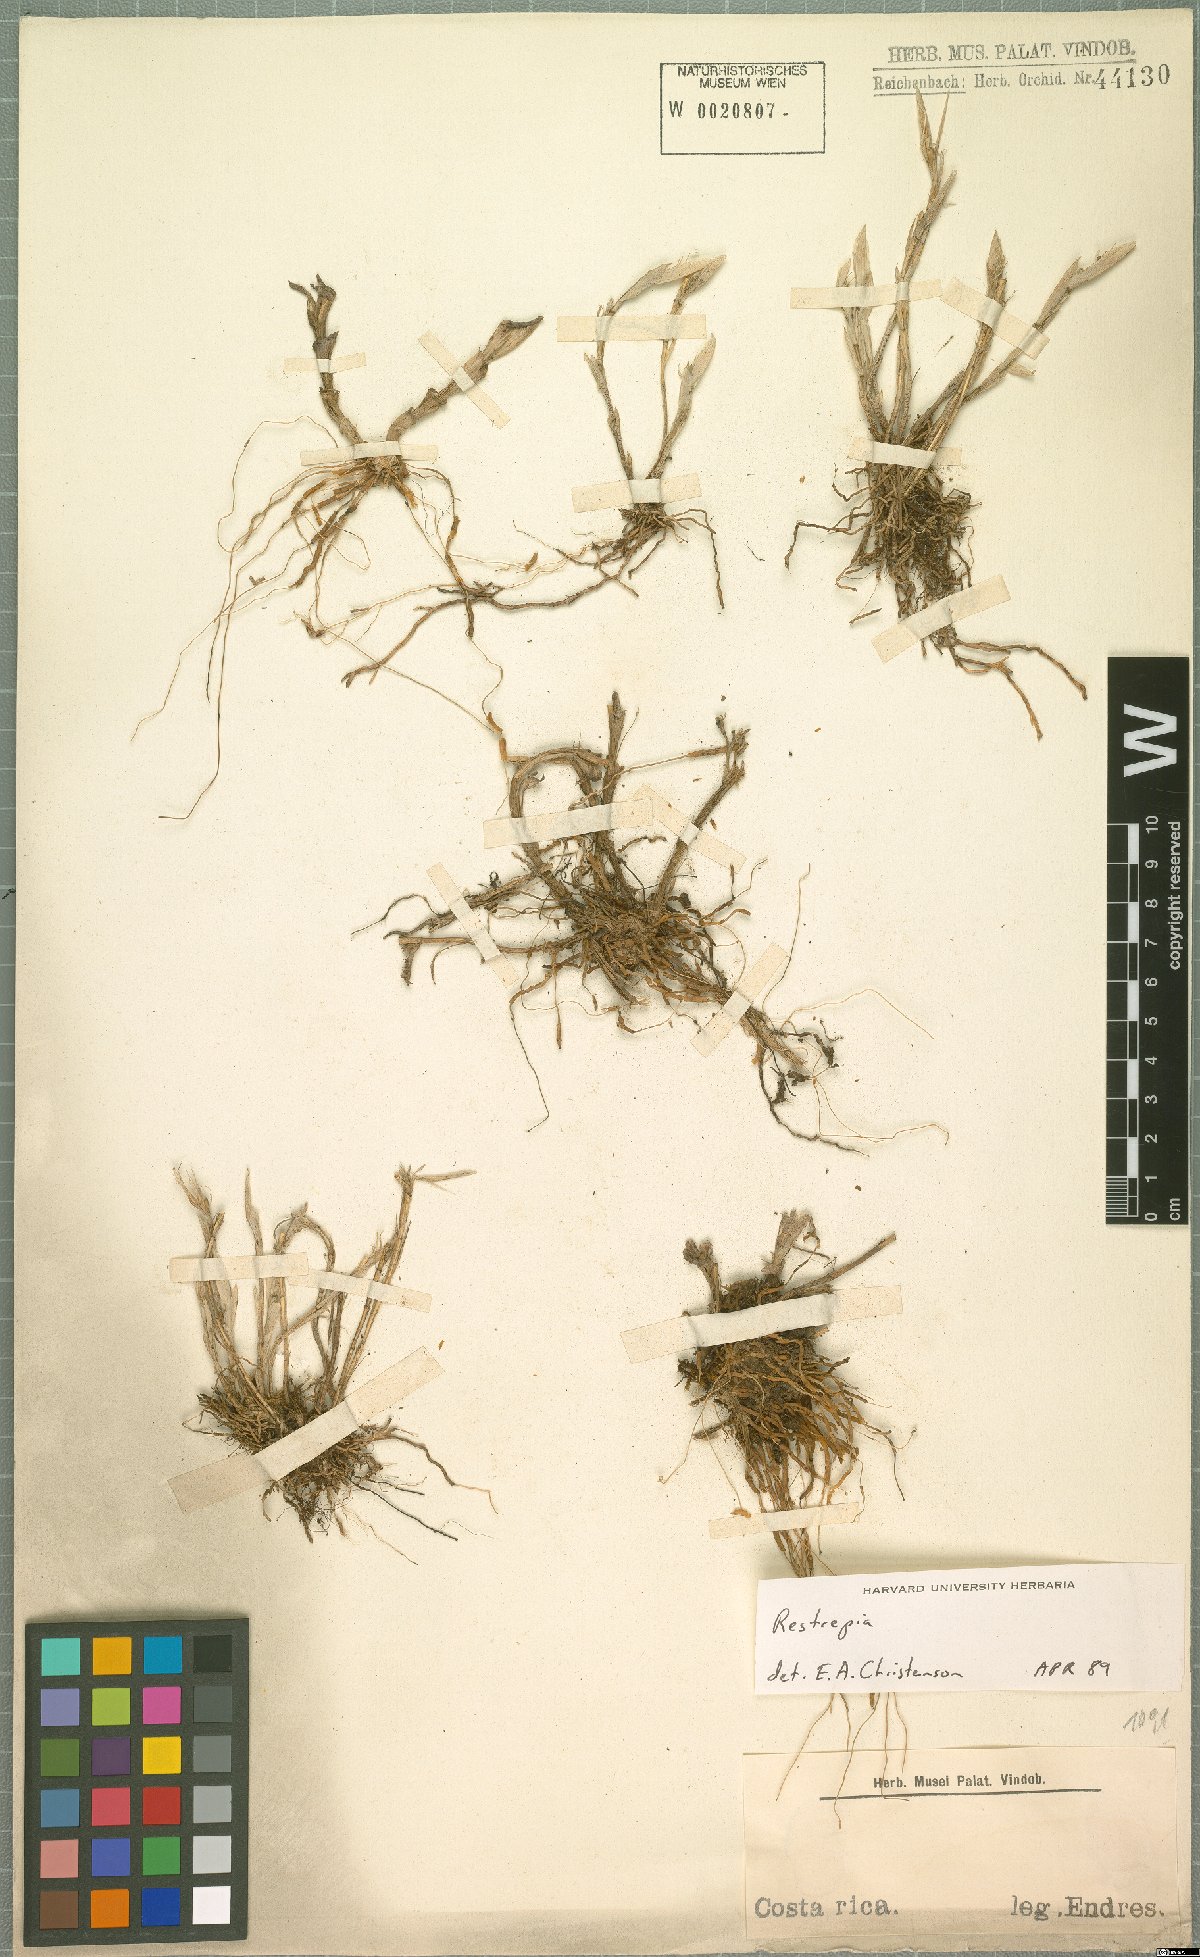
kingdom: Plantae
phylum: Tracheophyta
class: Liliopsida
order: Asparagales
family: Orchidaceae
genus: Restrepia
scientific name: Restrepia
